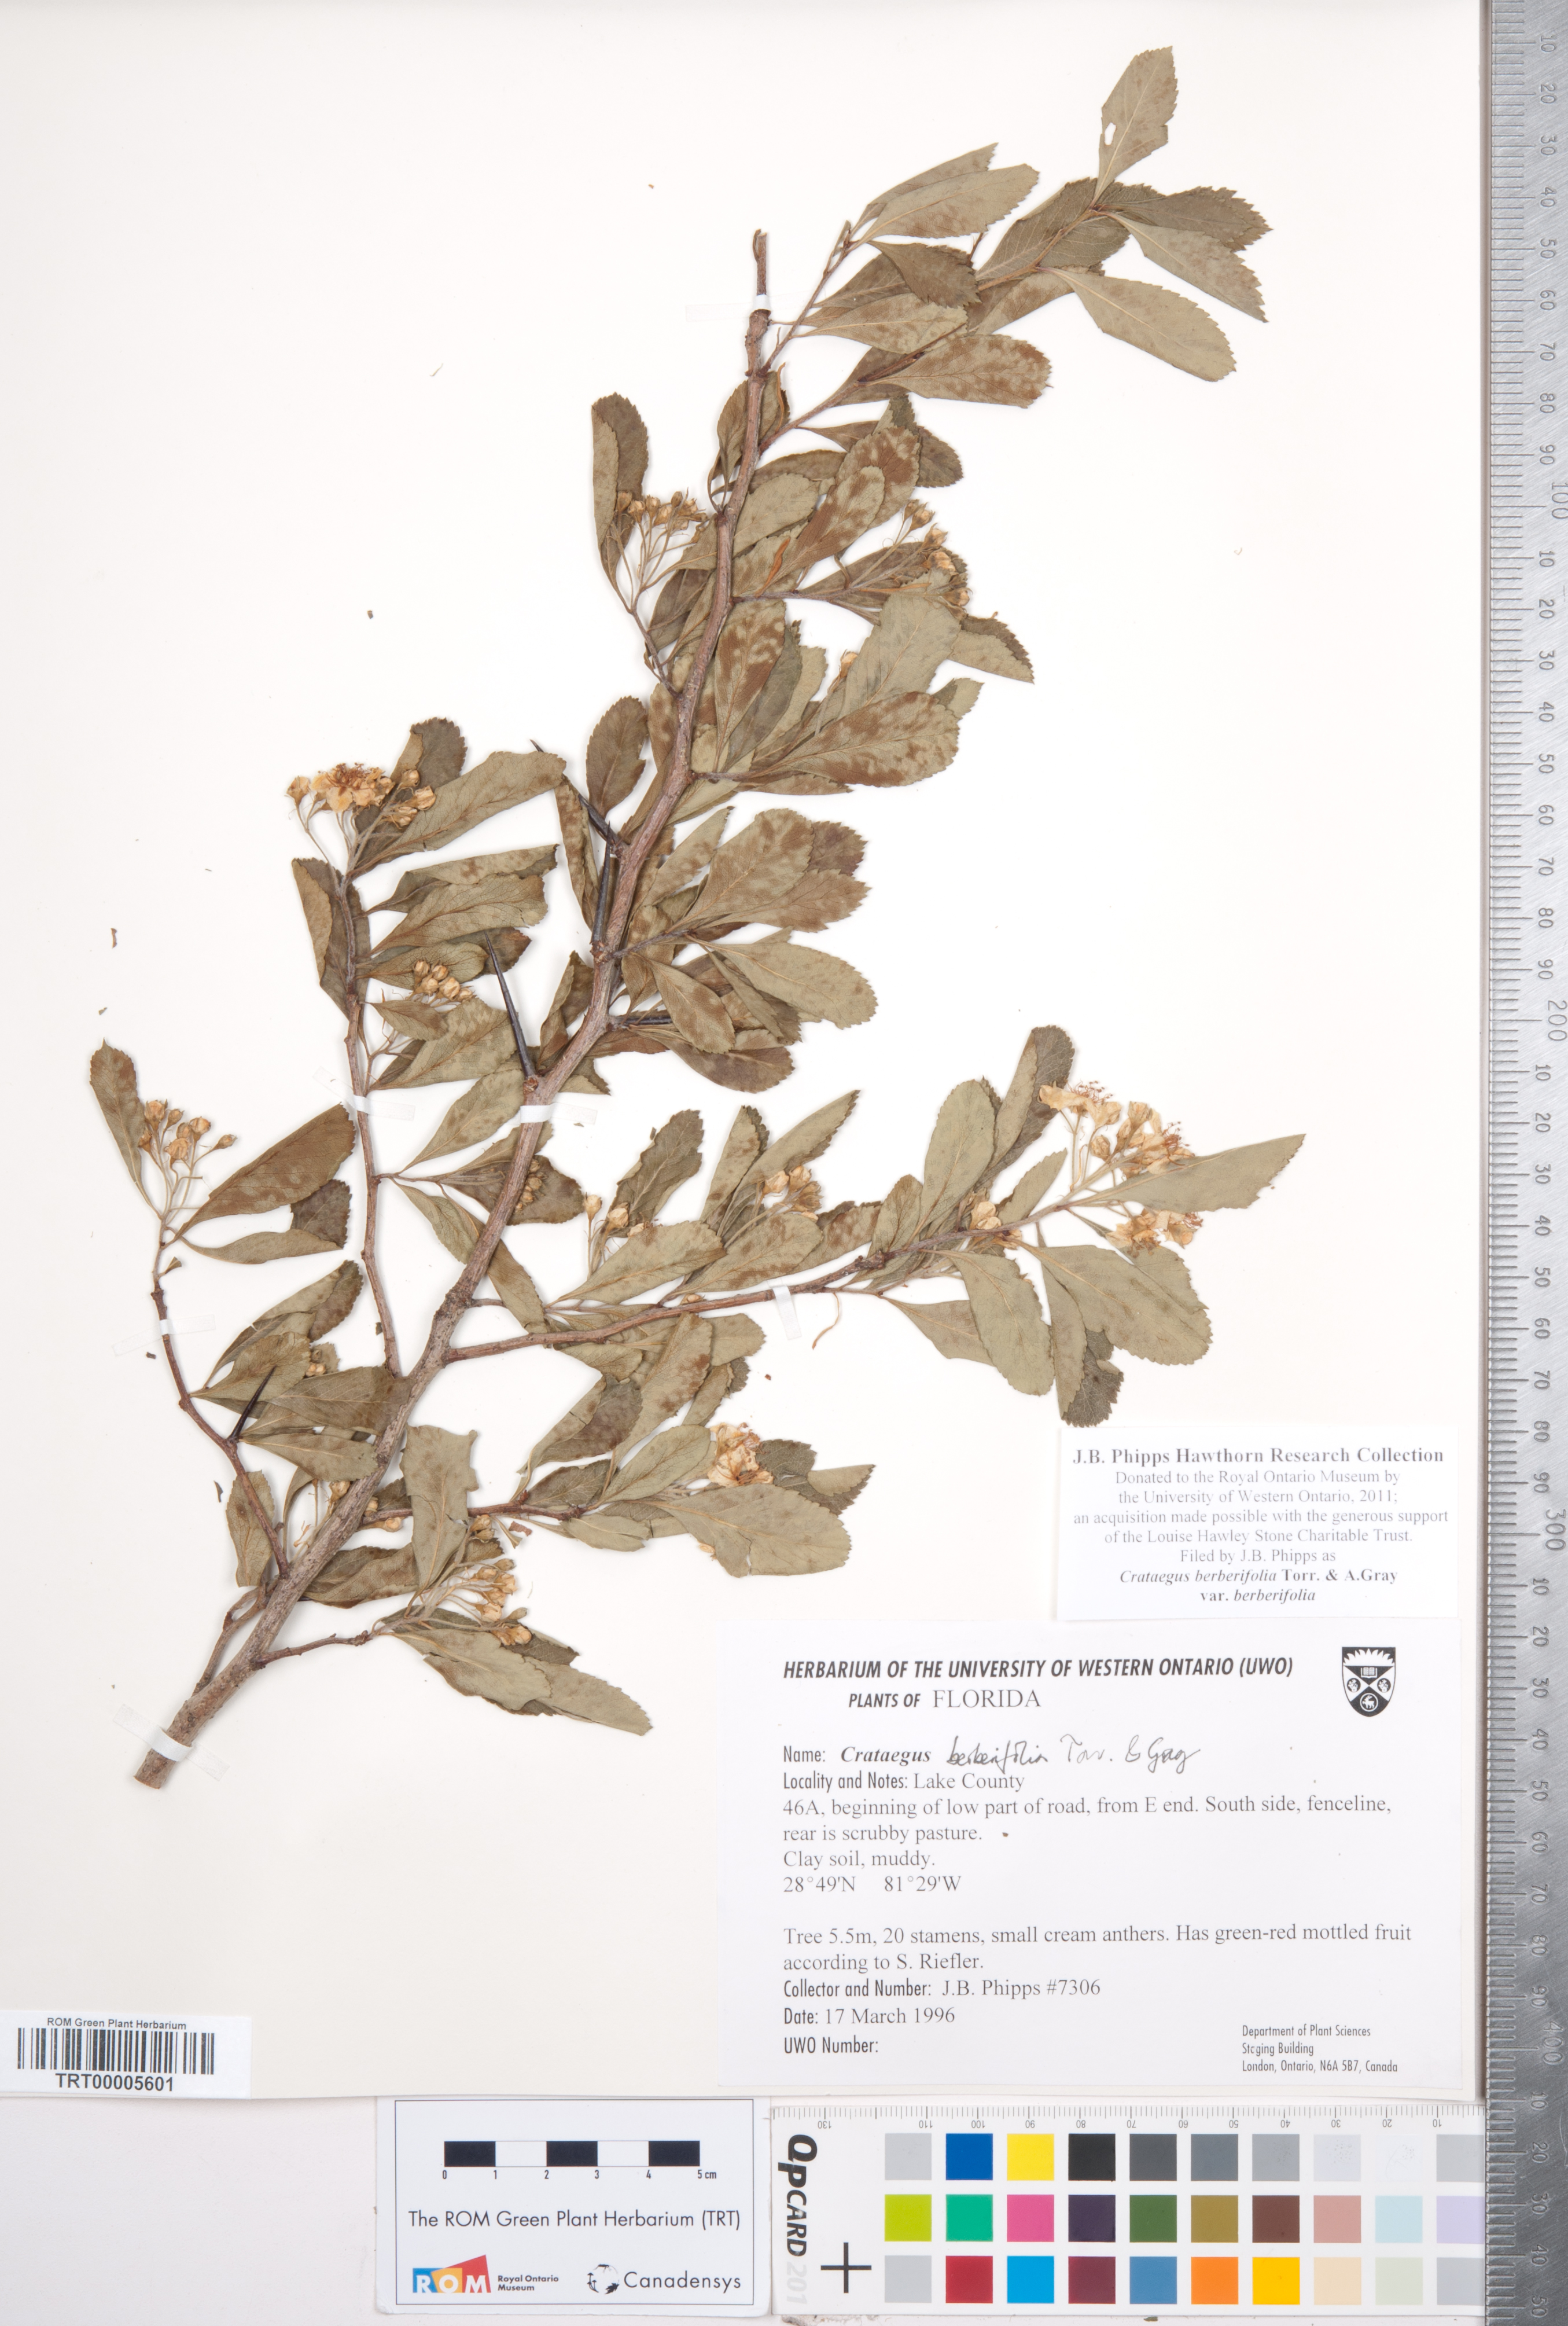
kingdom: Plantae
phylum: Tracheophyta
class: Magnoliopsida
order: Rosales
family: Rosaceae
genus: Crataegus
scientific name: Crataegus berberifolia
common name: Barberry hawthorn
